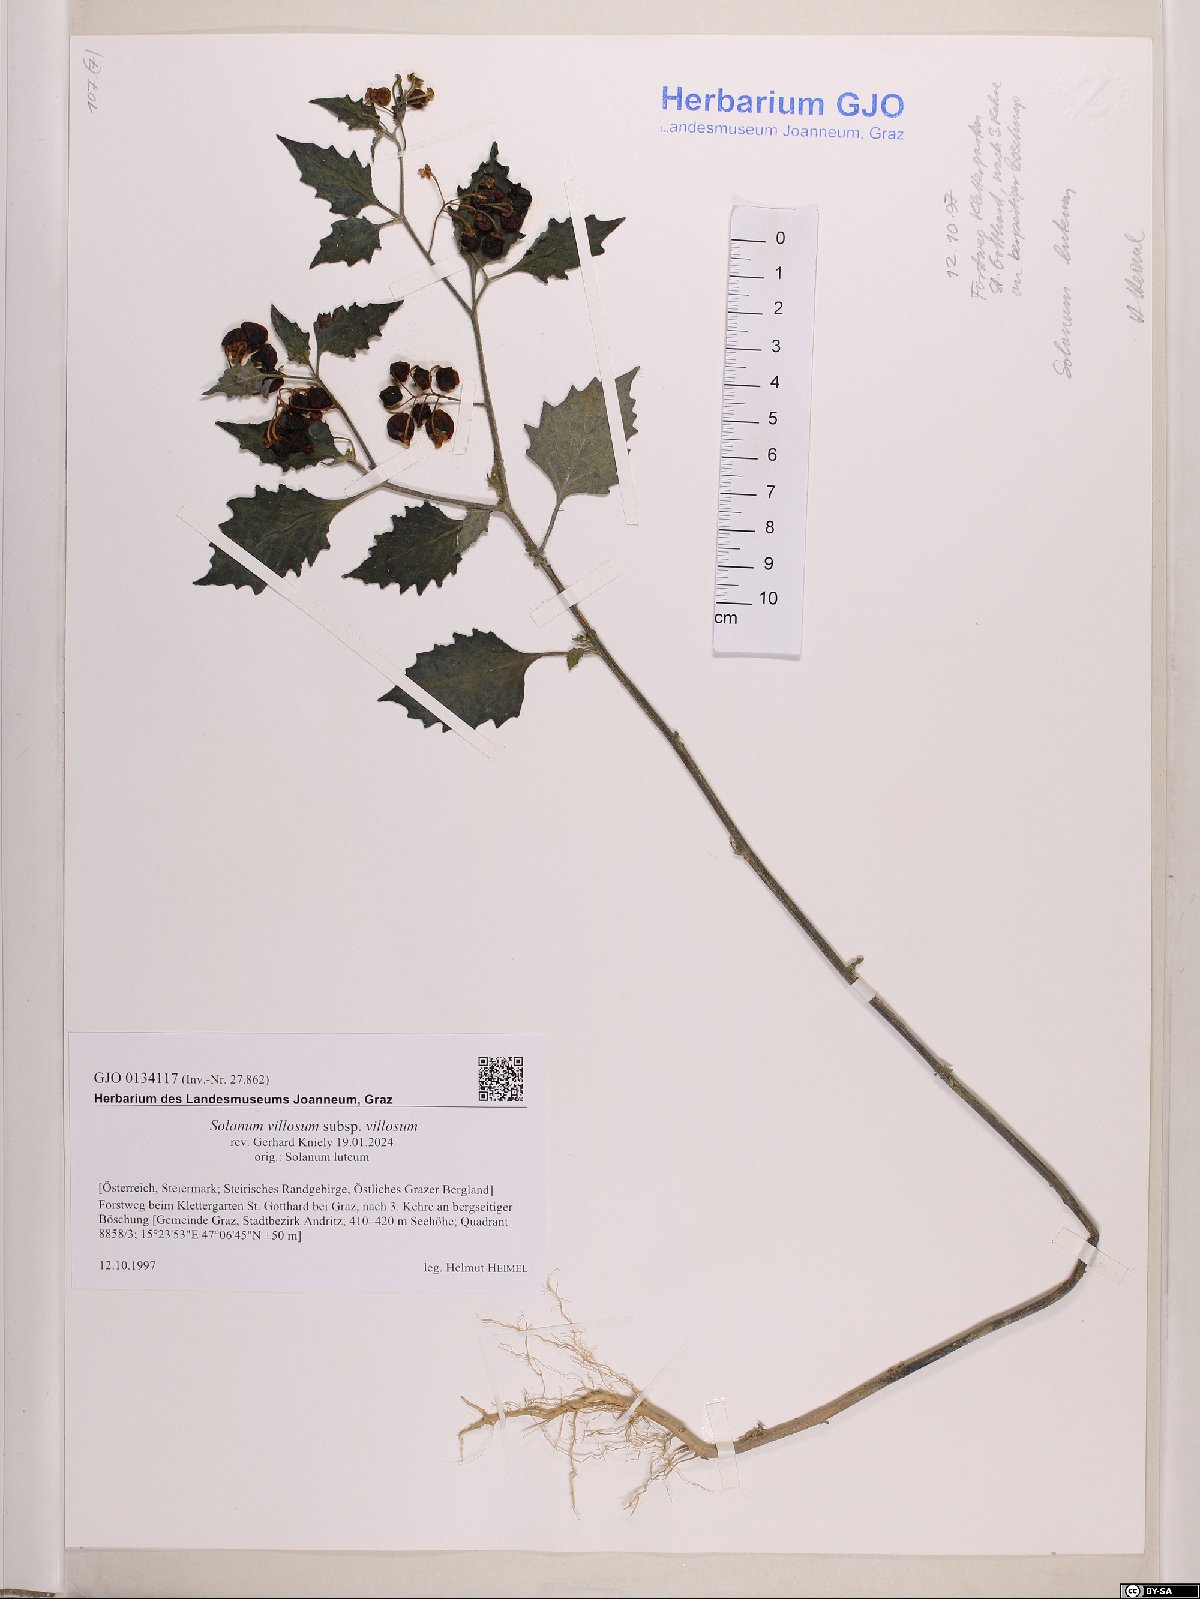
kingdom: Plantae
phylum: Tracheophyta
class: Magnoliopsida
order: Solanales
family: Solanaceae
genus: Solanum
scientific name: Solanum villosum
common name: Red nightshade
